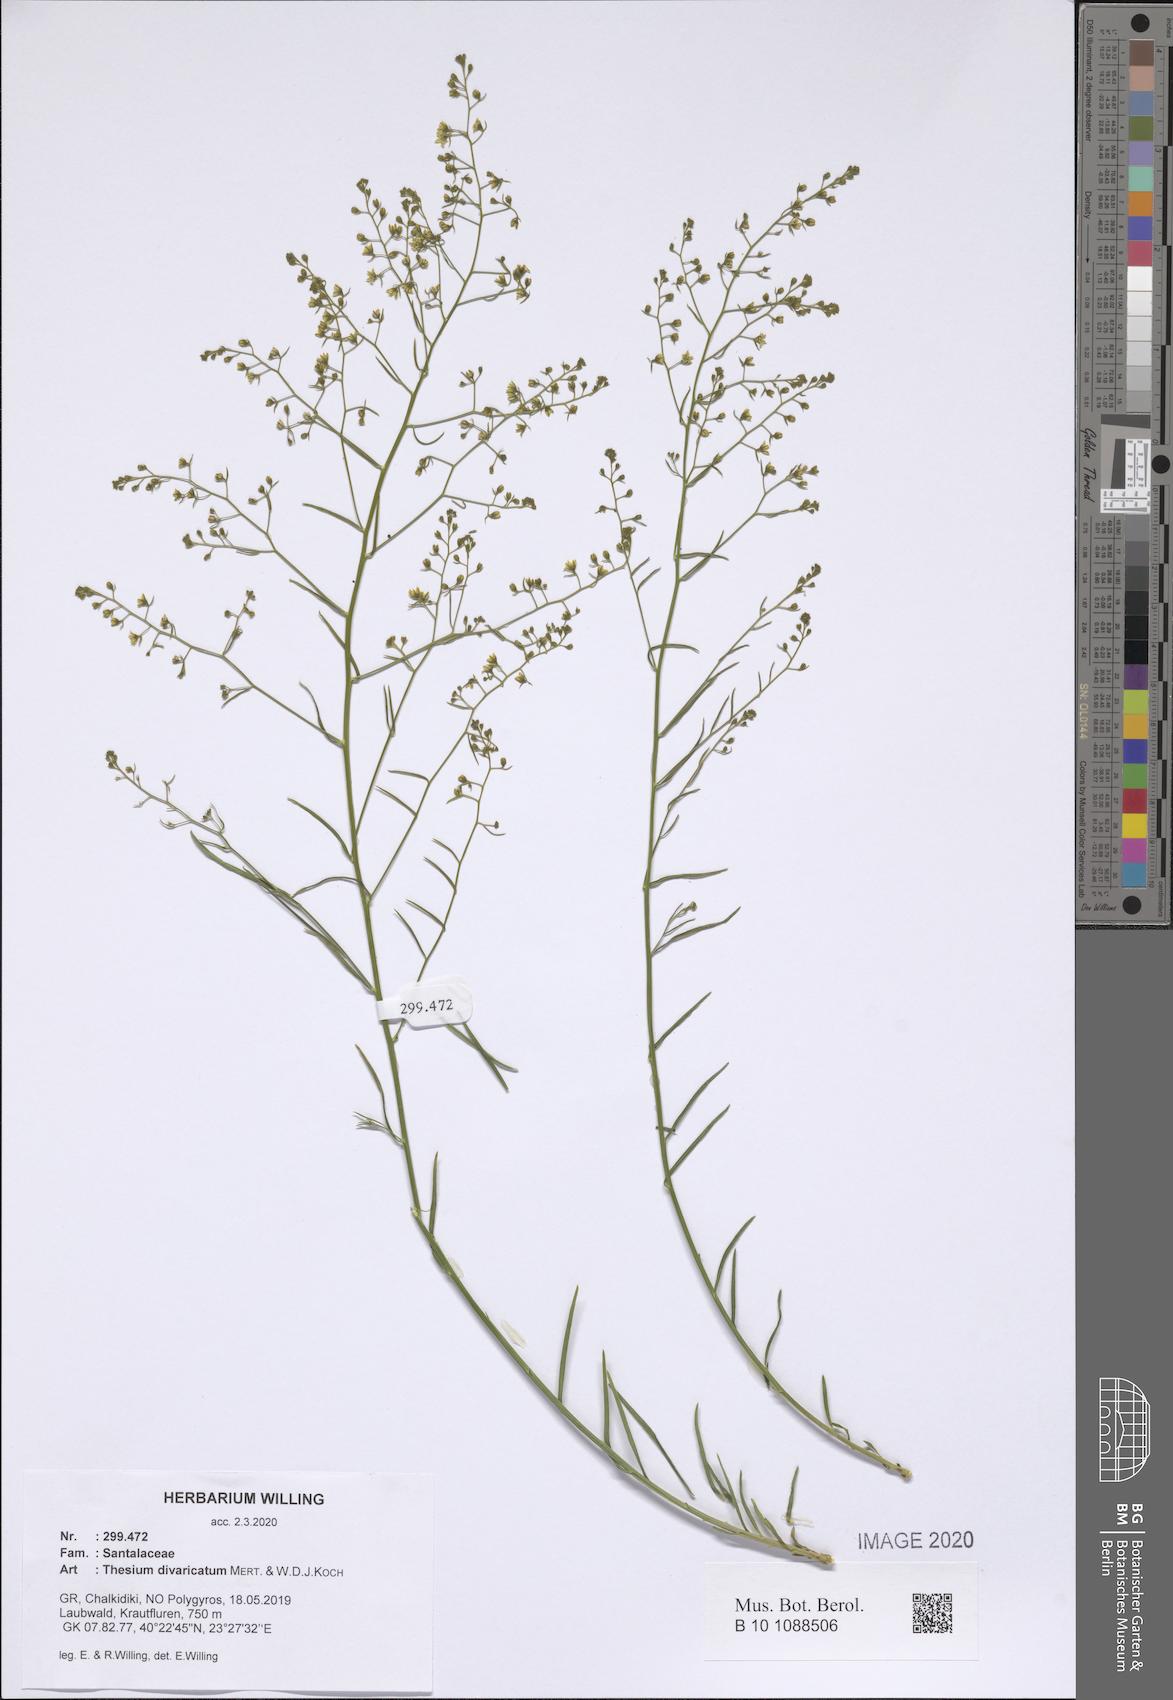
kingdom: Plantae
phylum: Tracheophyta
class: Magnoliopsida
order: Santalales
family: Thesiaceae
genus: Thesium
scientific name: Thesium divaricatum
